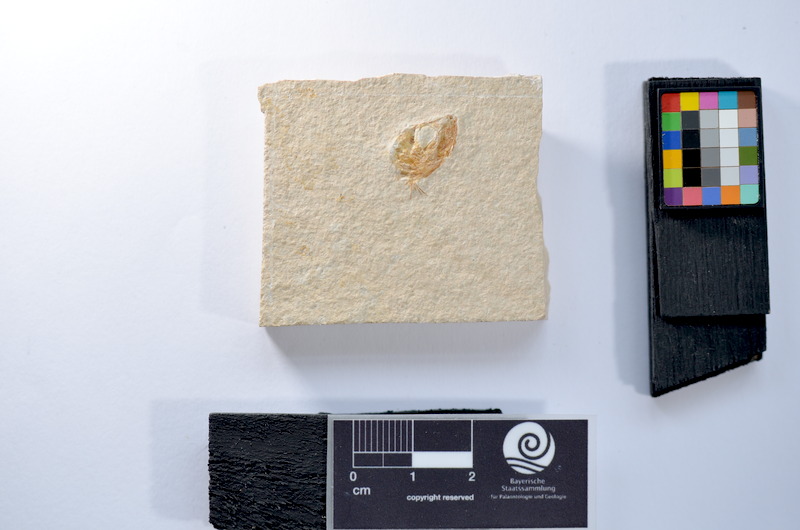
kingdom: Animalia
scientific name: Animalia
